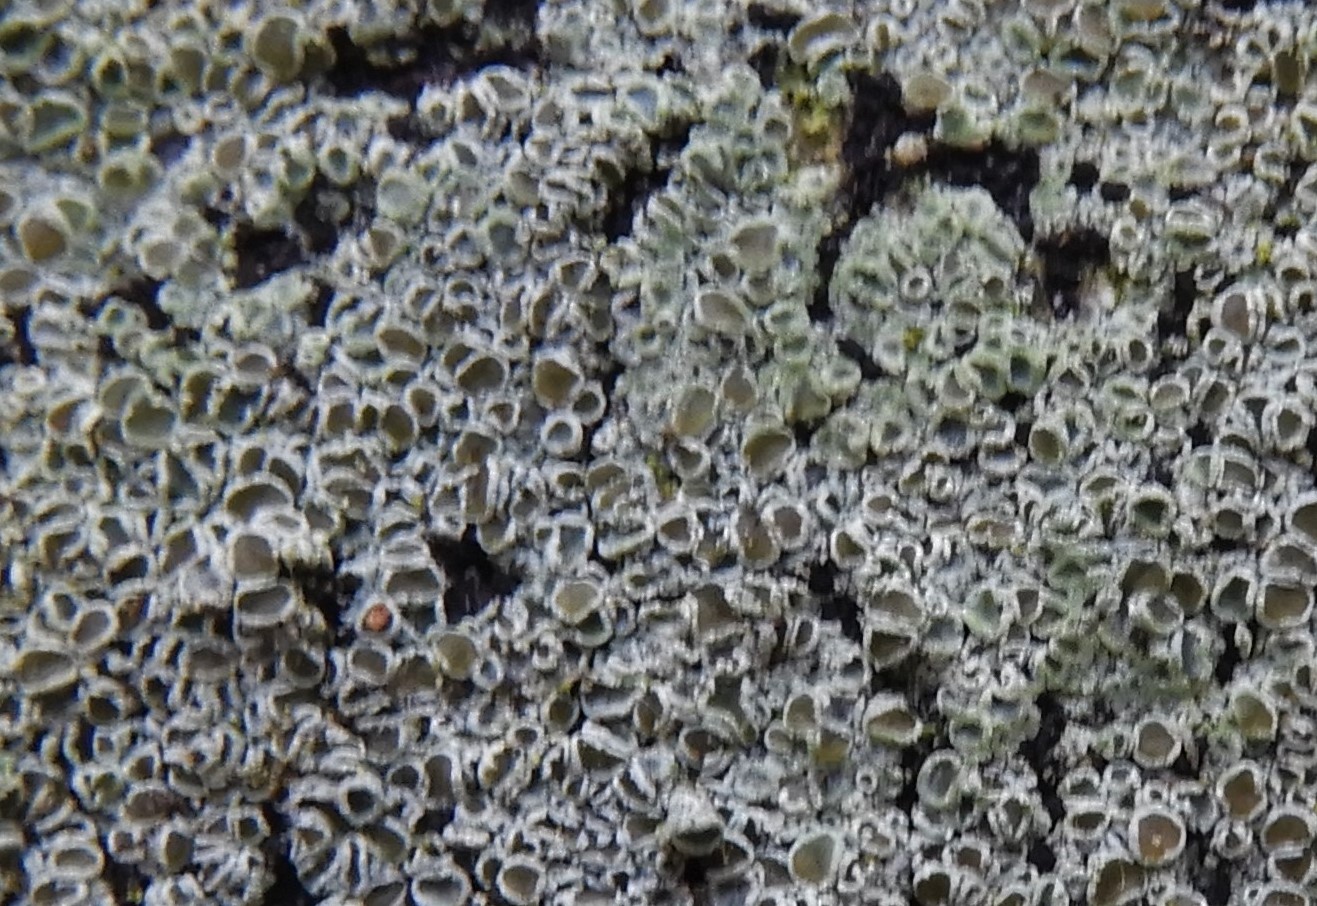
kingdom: Fungi
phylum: Ascomycota
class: Lecanoromycetes
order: Lecanorales
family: Lecanoraceae
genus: Lecanora
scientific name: Lecanora chlarotera
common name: brun kantskivelav
